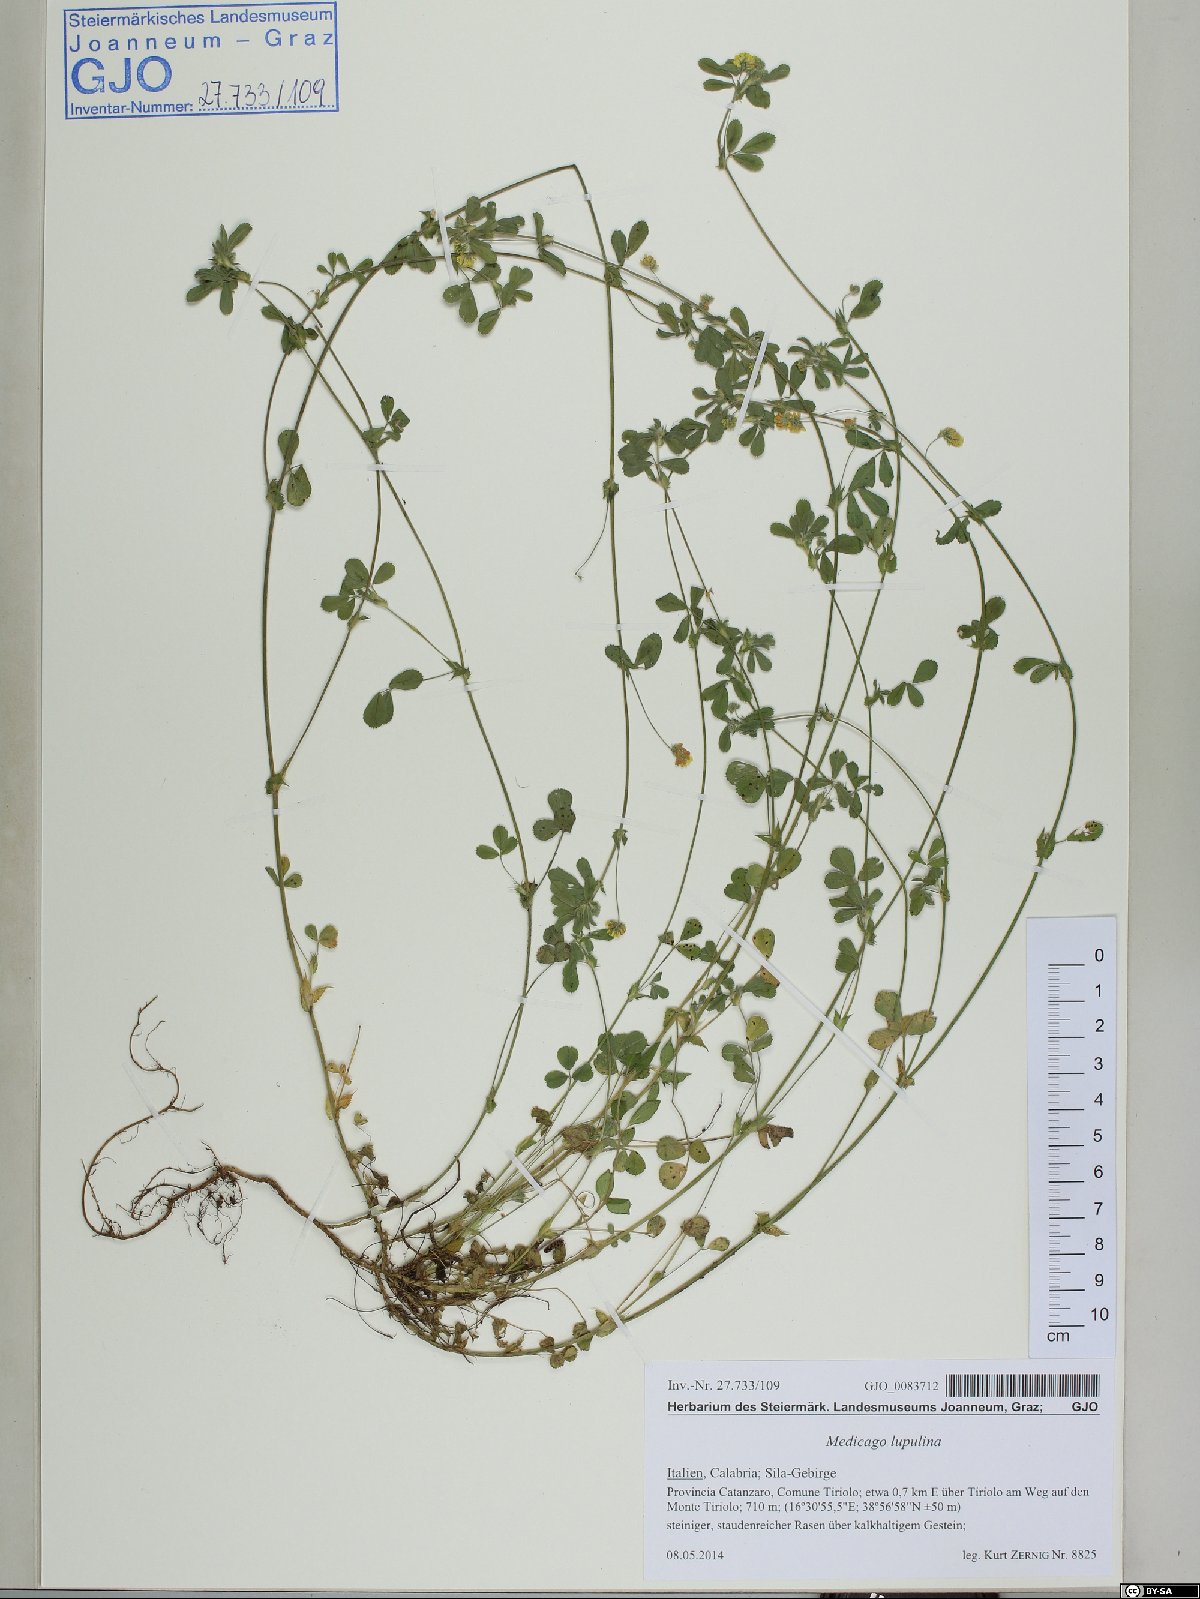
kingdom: Plantae
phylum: Tracheophyta
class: Magnoliopsida
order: Fabales
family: Fabaceae
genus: Medicago
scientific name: Medicago lupulina
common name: Black medick
